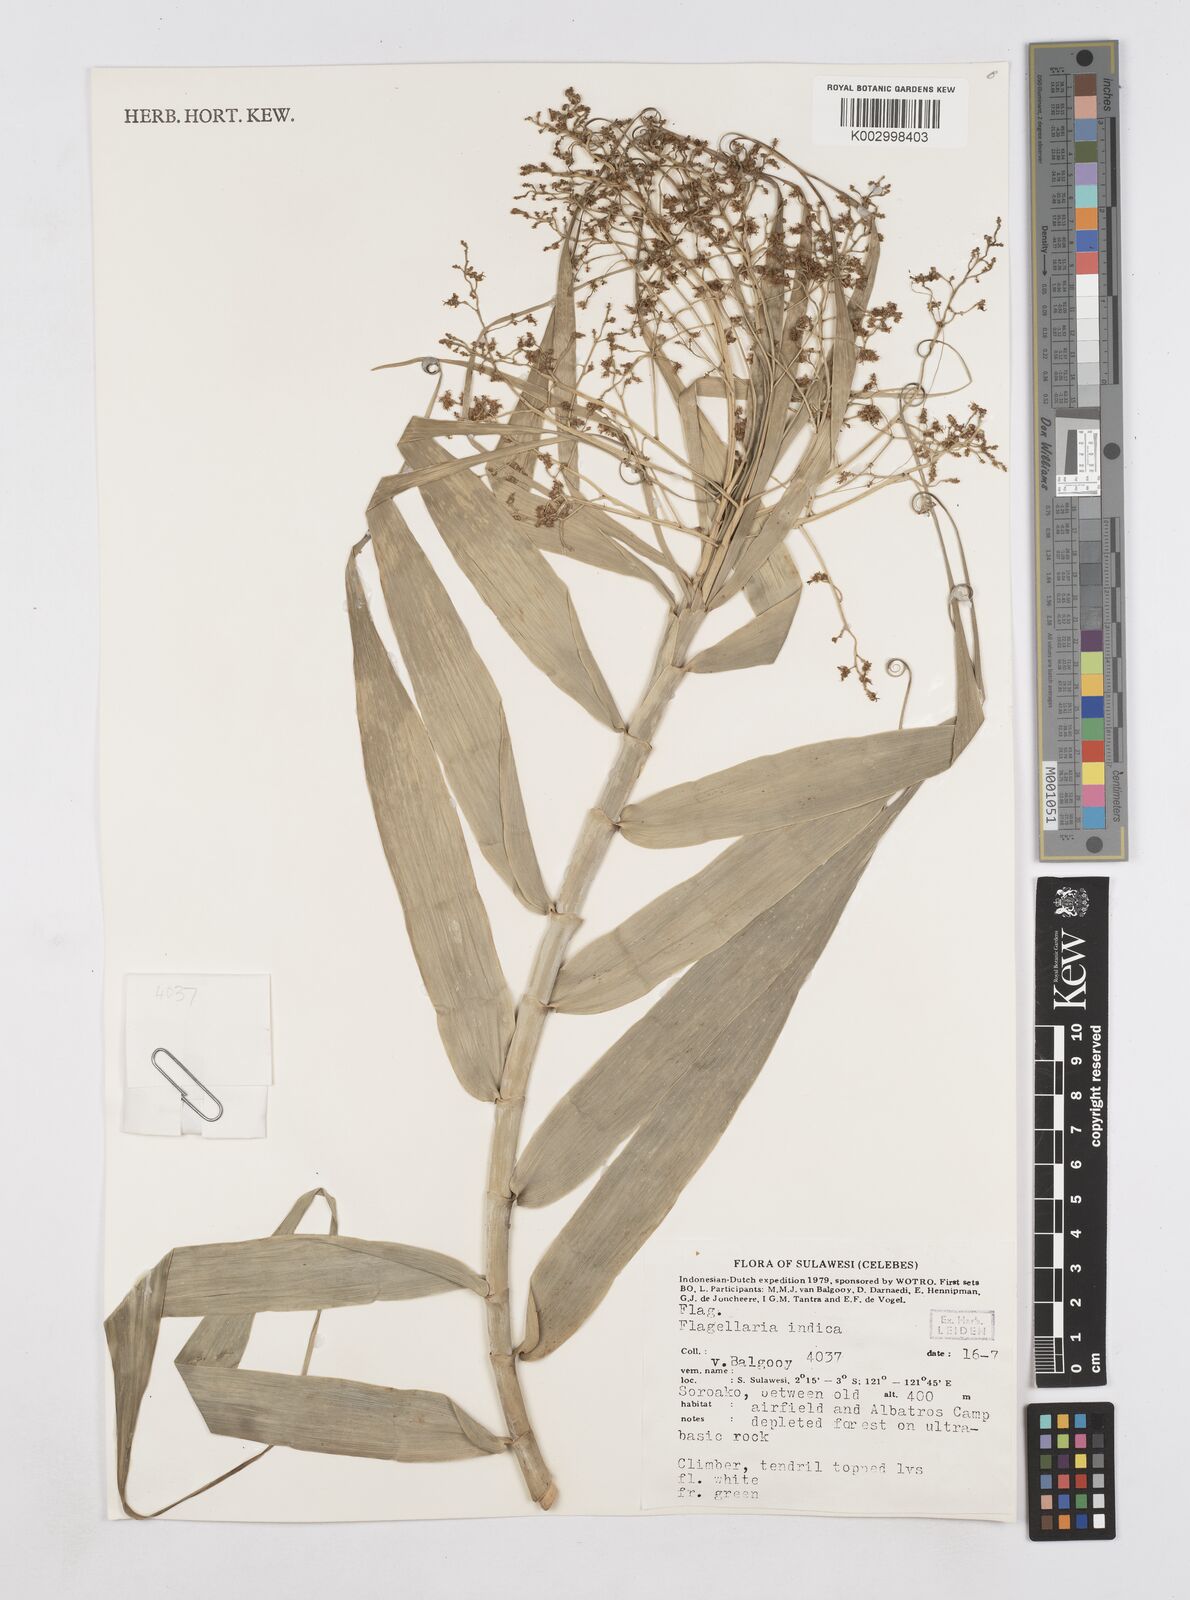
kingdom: Plantae
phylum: Tracheophyta
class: Liliopsida
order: Poales
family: Flagellariaceae
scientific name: Flagellariaceae
